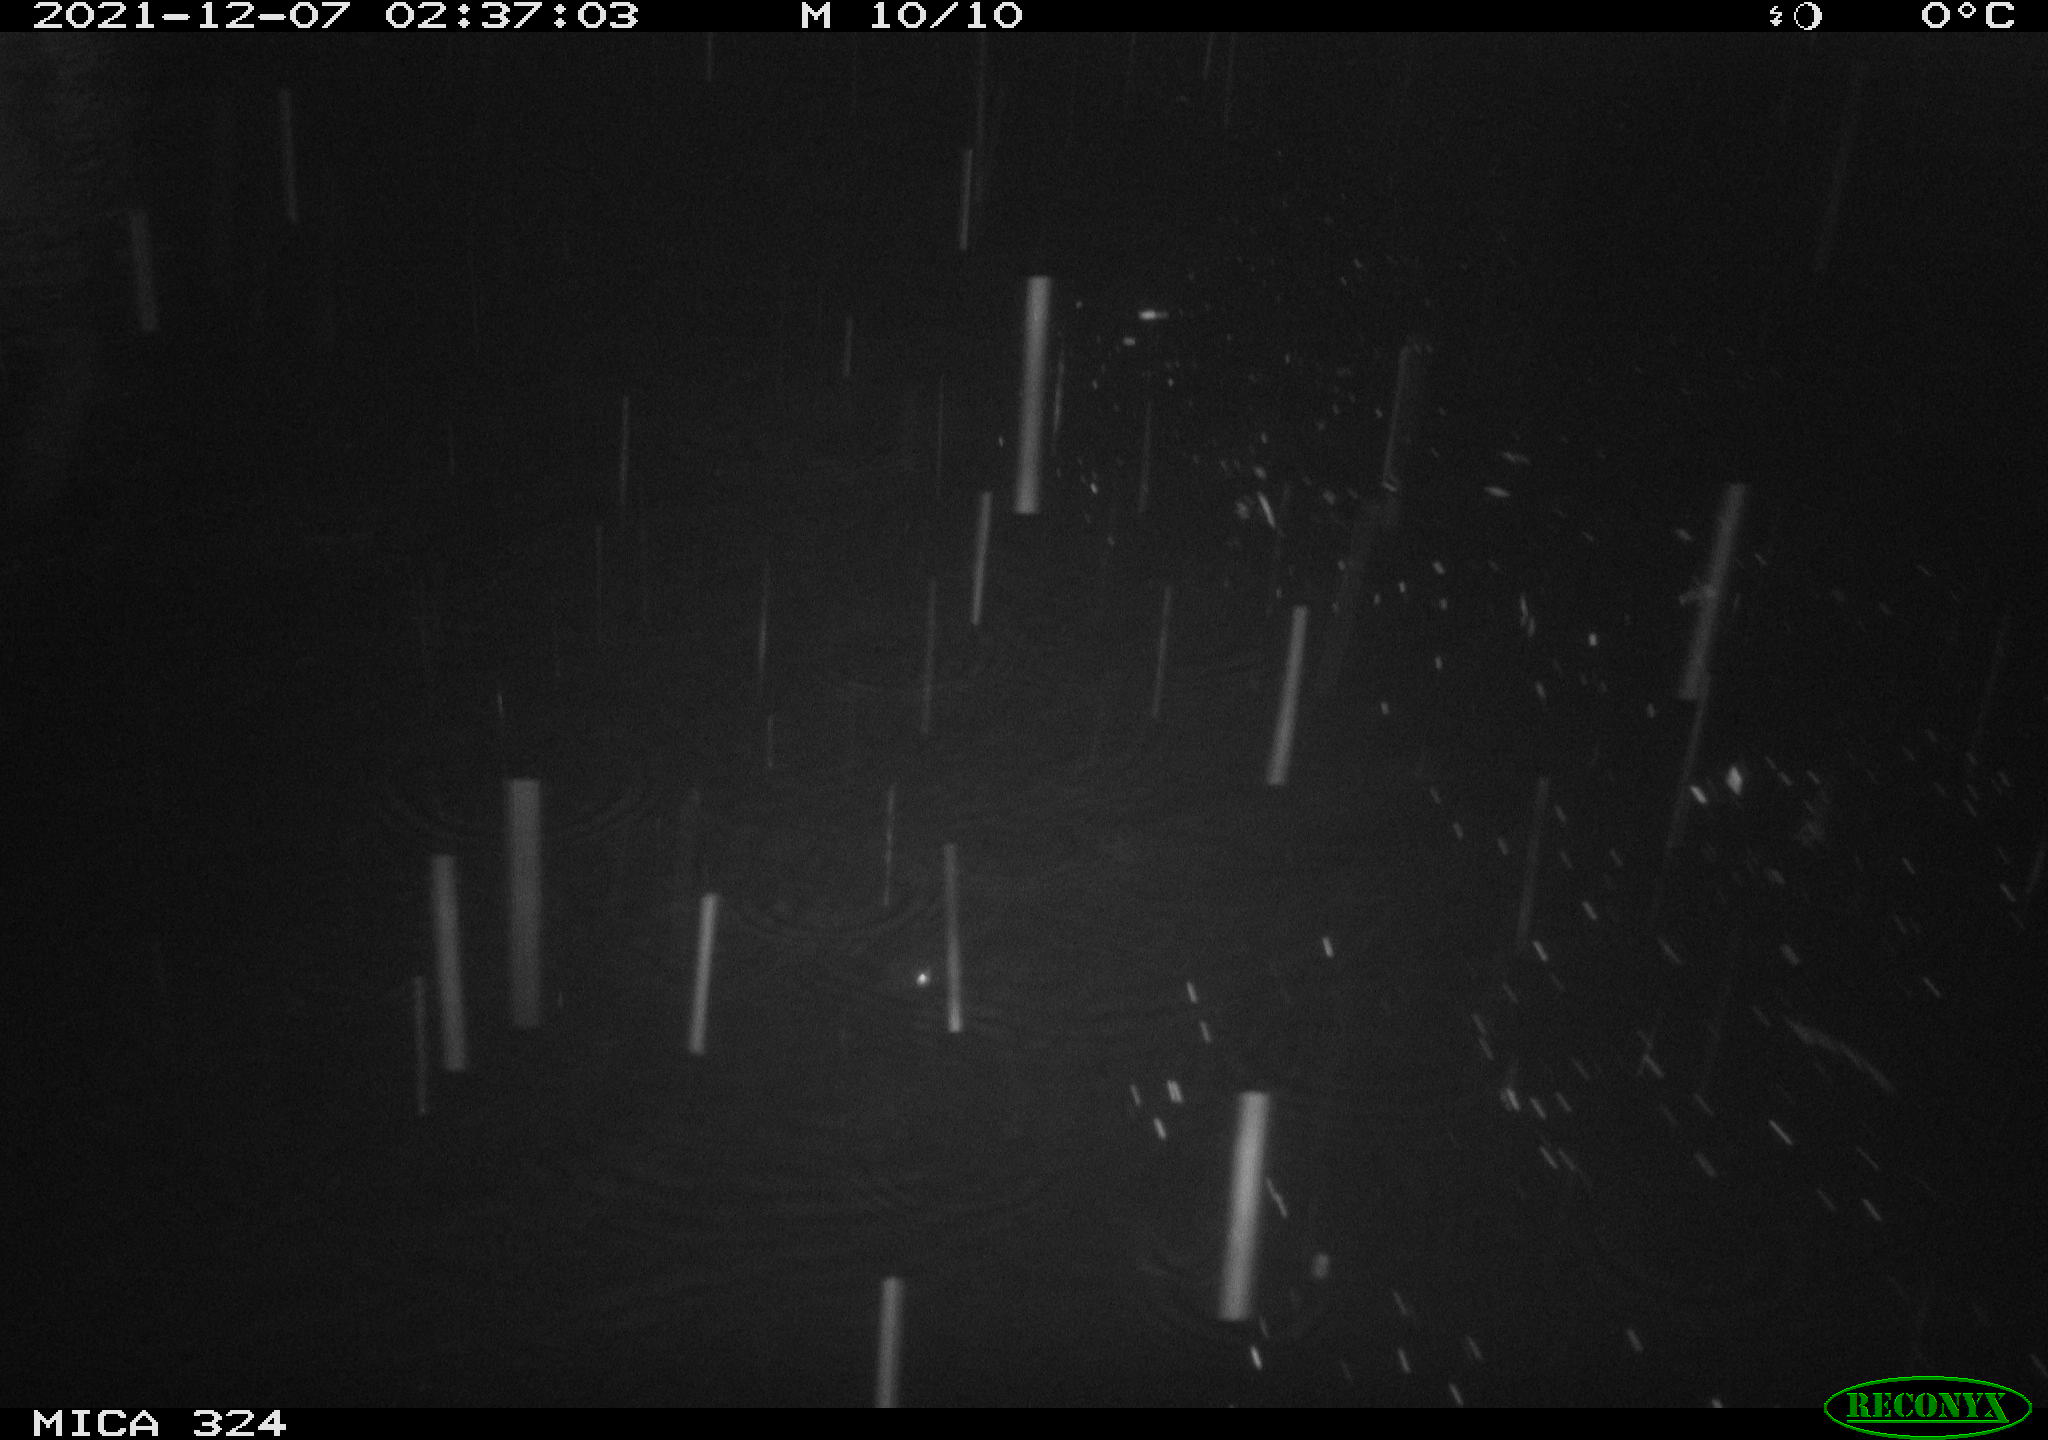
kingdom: Animalia
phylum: Chordata
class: Mammalia
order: Rodentia
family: Cricetidae
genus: Ondatra
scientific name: Ondatra zibethicus
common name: Muskrat
